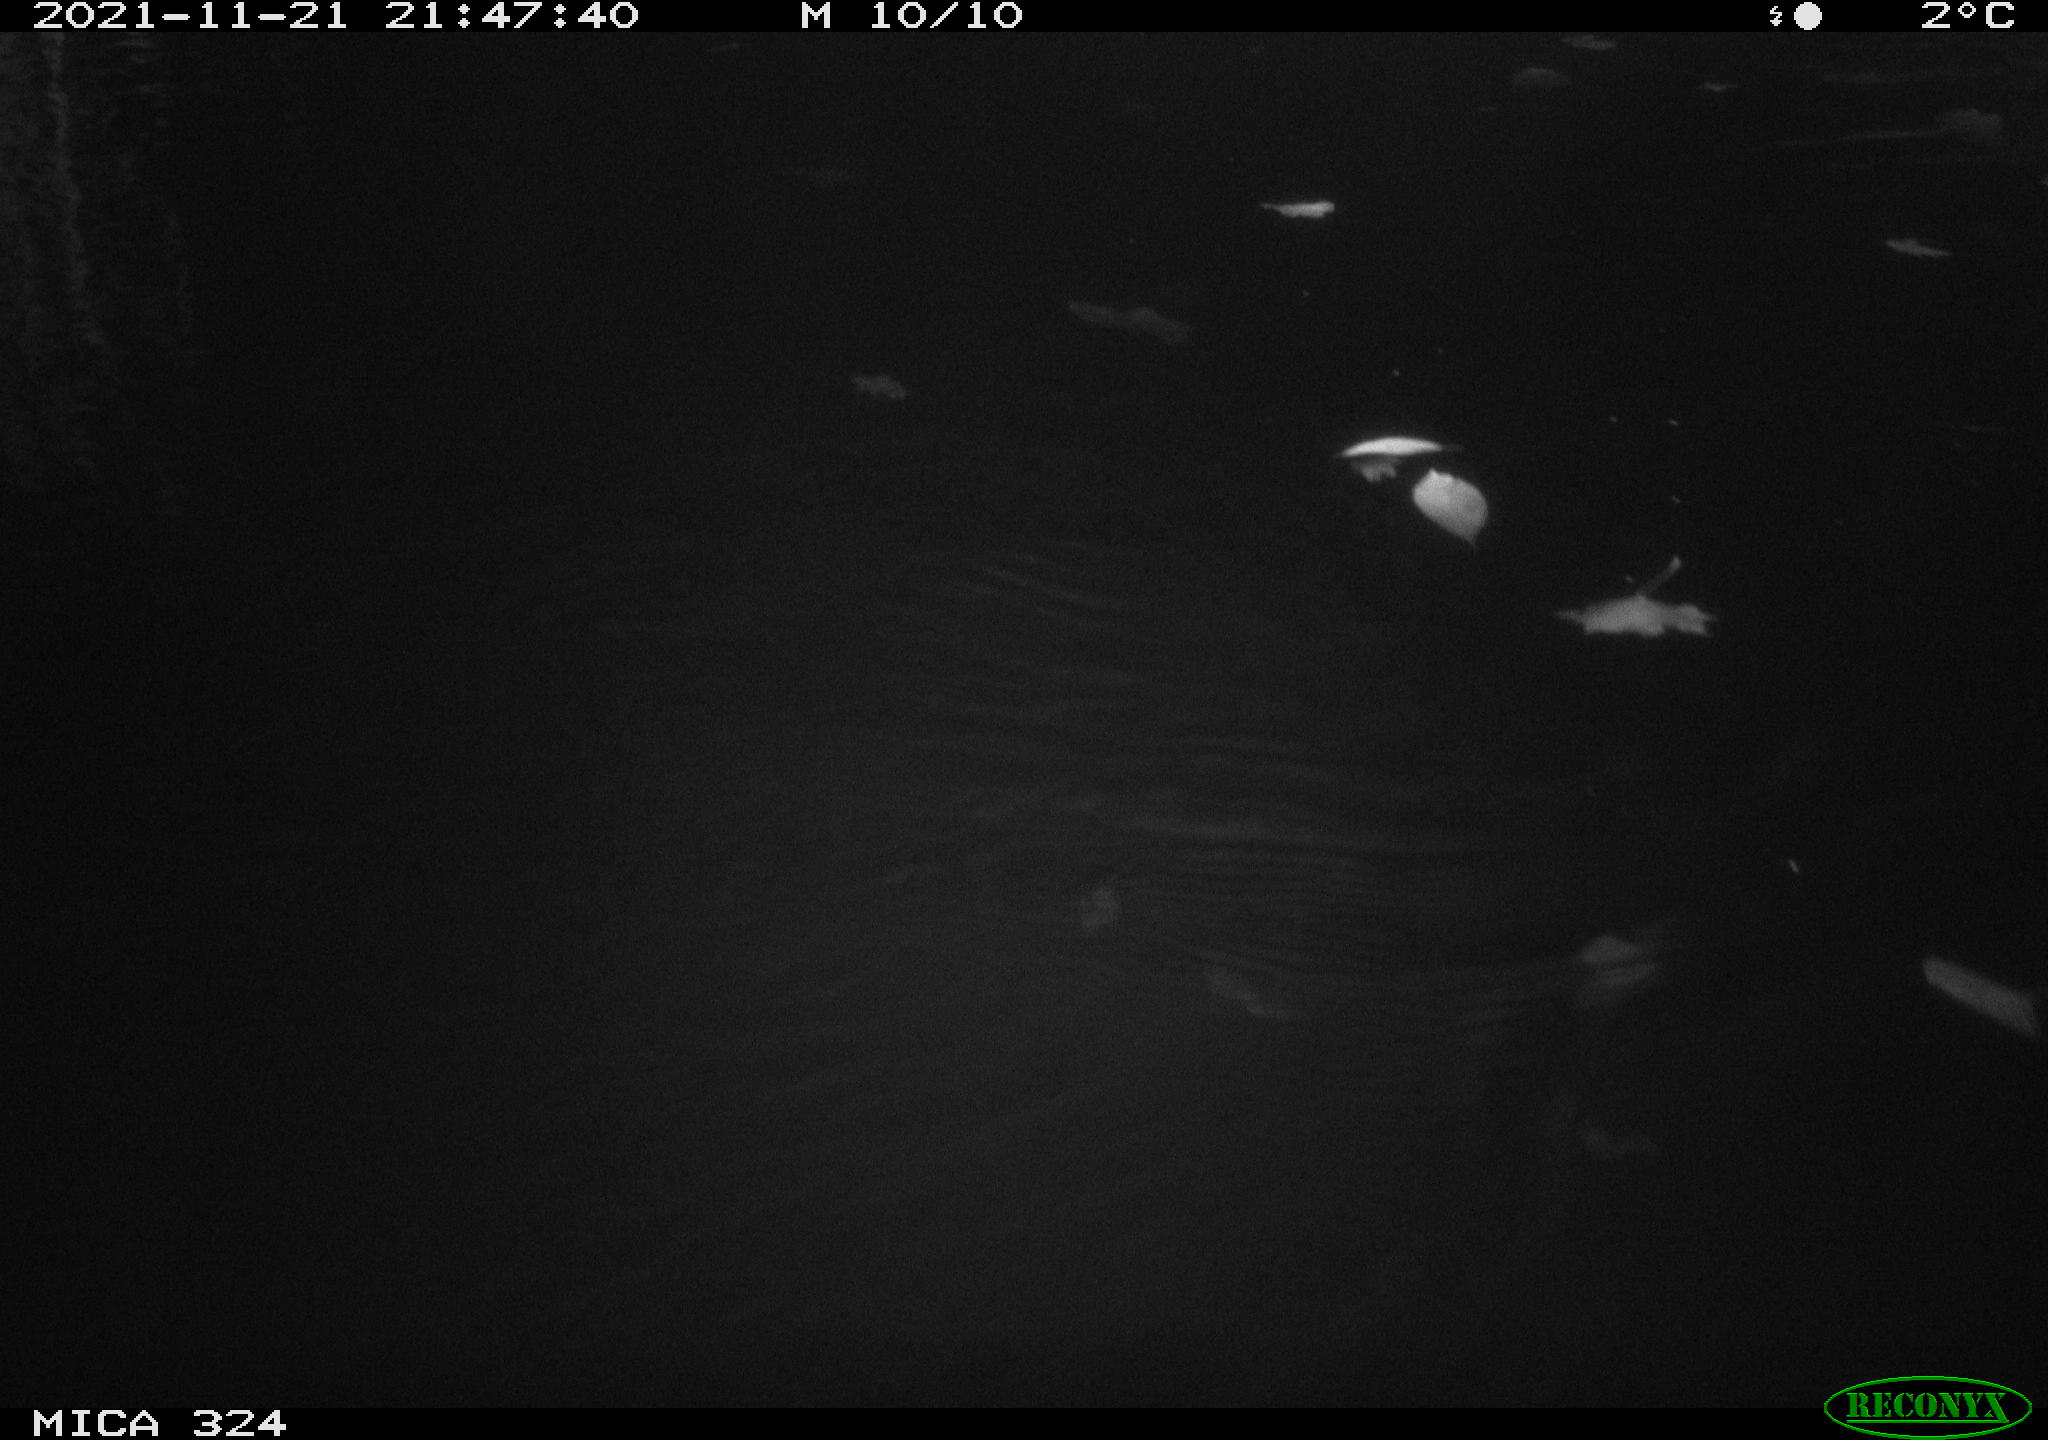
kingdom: Animalia
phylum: Chordata
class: Mammalia
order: Rodentia
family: Cricetidae
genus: Ondatra
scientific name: Ondatra zibethicus
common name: Muskrat
